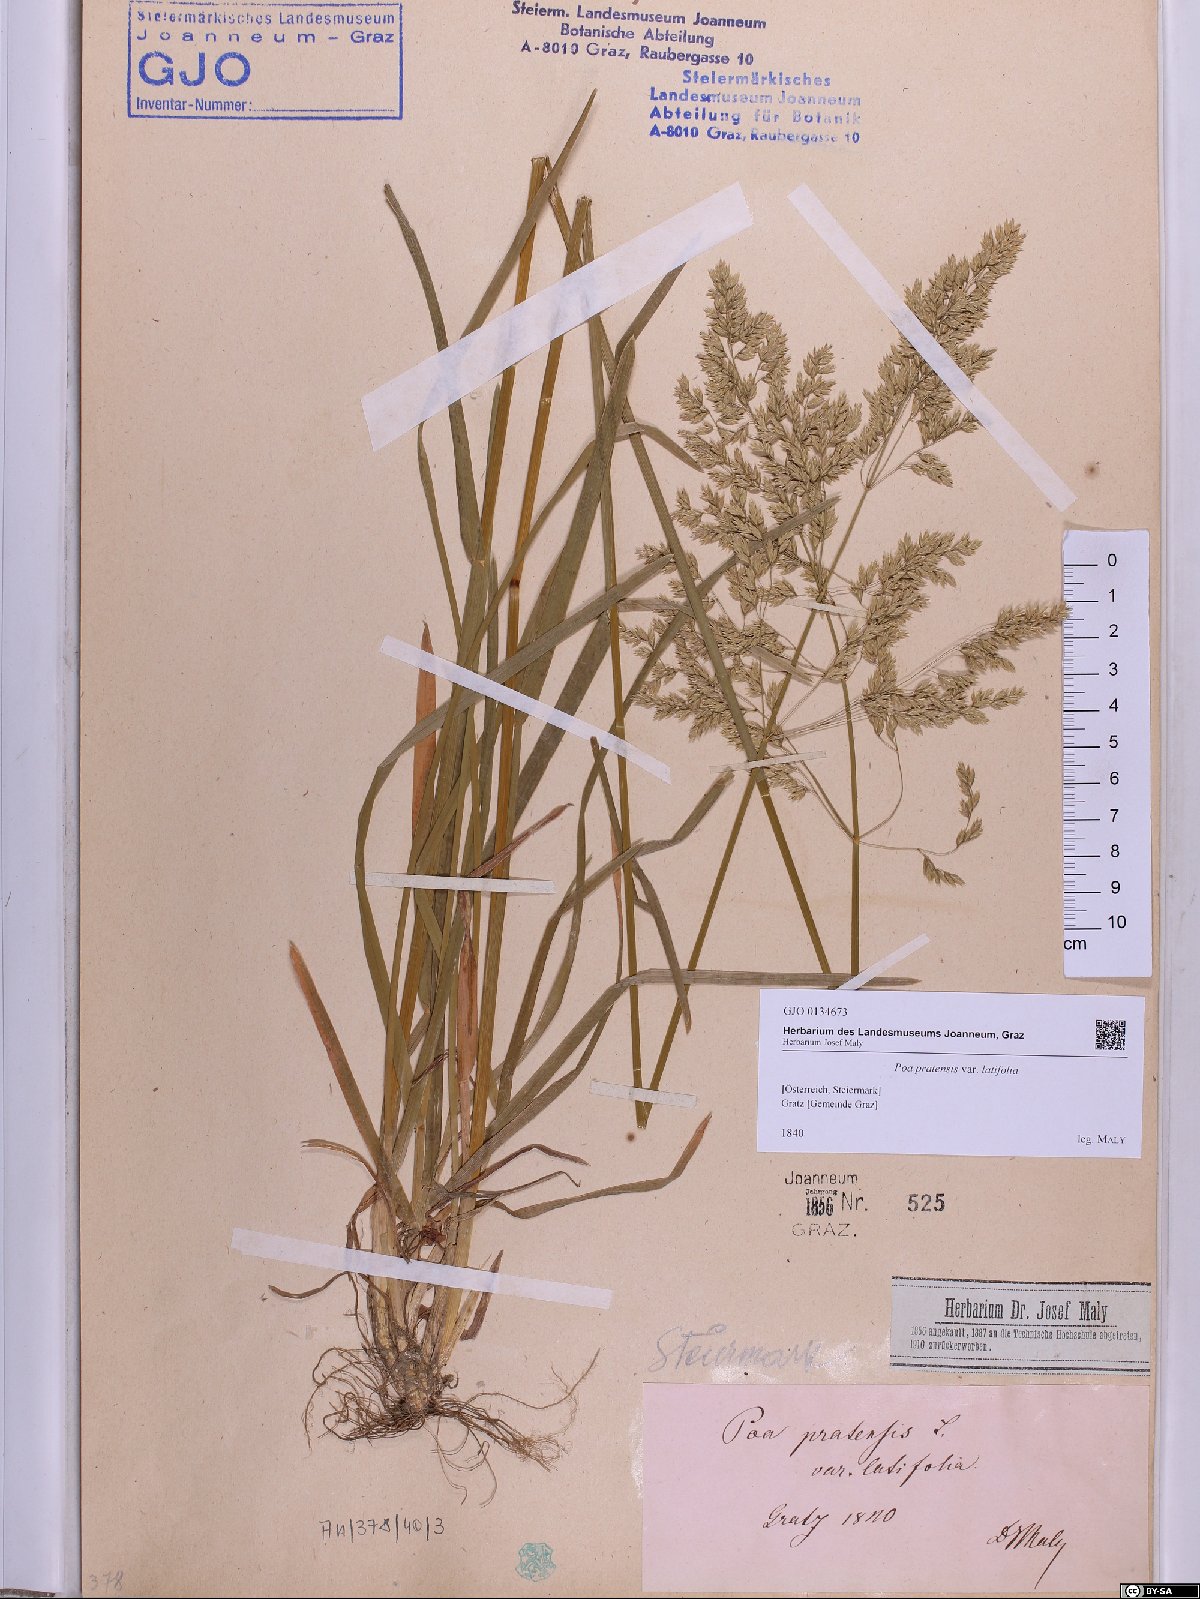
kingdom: Plantae
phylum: Tracheophyta
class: Liliopsida
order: Poales
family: Poaceae
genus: Poa
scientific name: Poa humilis
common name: Spreading meadow-grass
